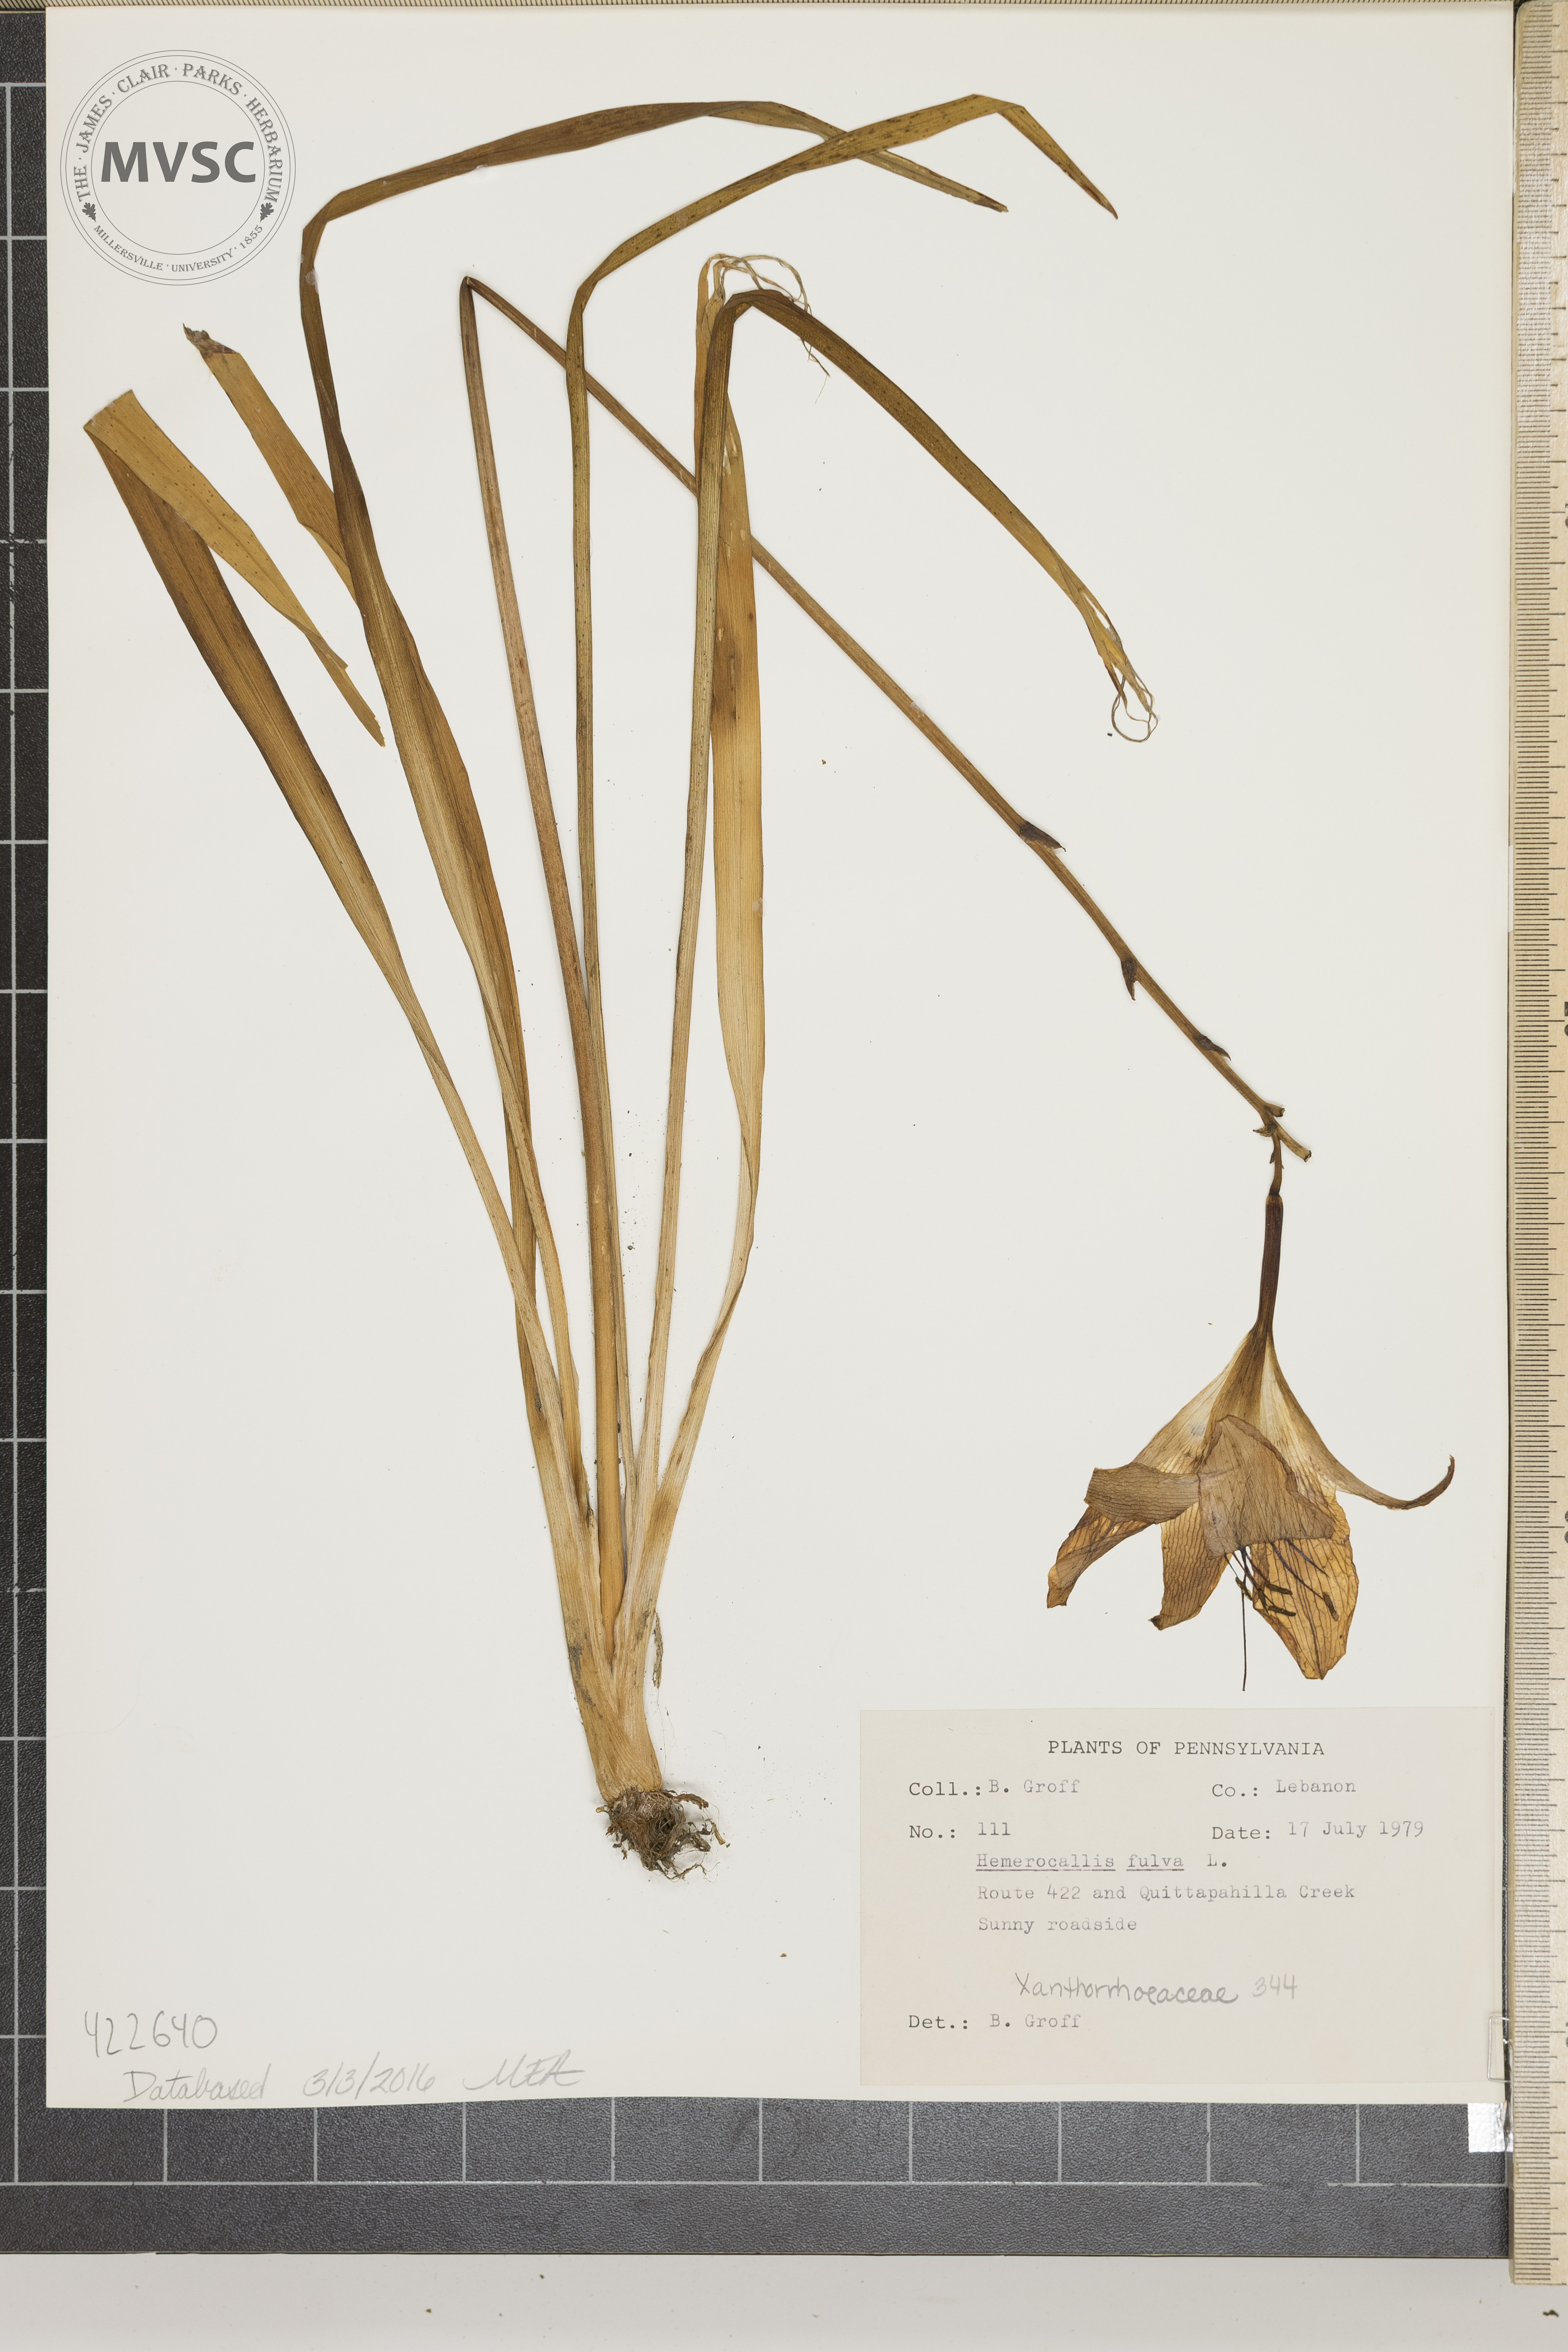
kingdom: Plantae
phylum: Tracheophyta
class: Liliopsida
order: Asparagales
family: Asphodelaceae
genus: Hemerocallis
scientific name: Hemerocallis fulva
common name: Orange Day-lily
